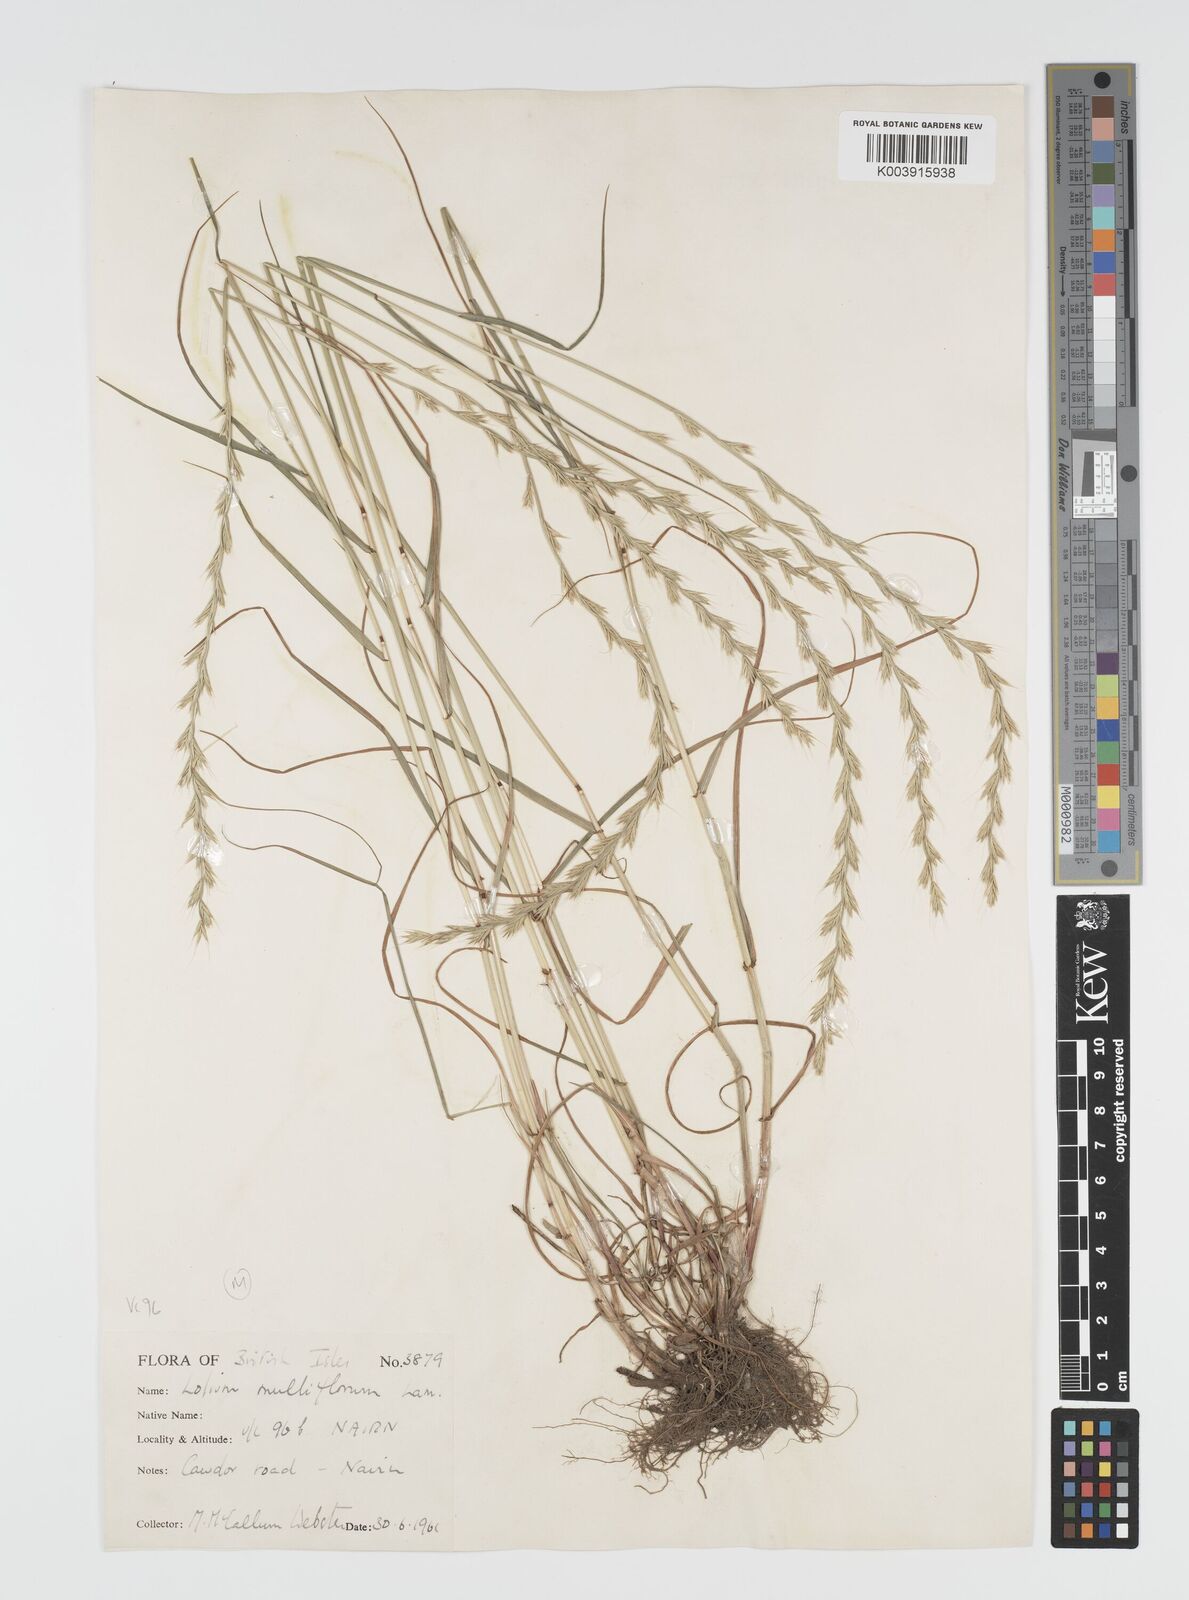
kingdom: Plantae
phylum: Tracheophyta
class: Liliopsida
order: Poales
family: Poaceae
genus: Lolium
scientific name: Lolium multiflorum
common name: Annual ryegrass
